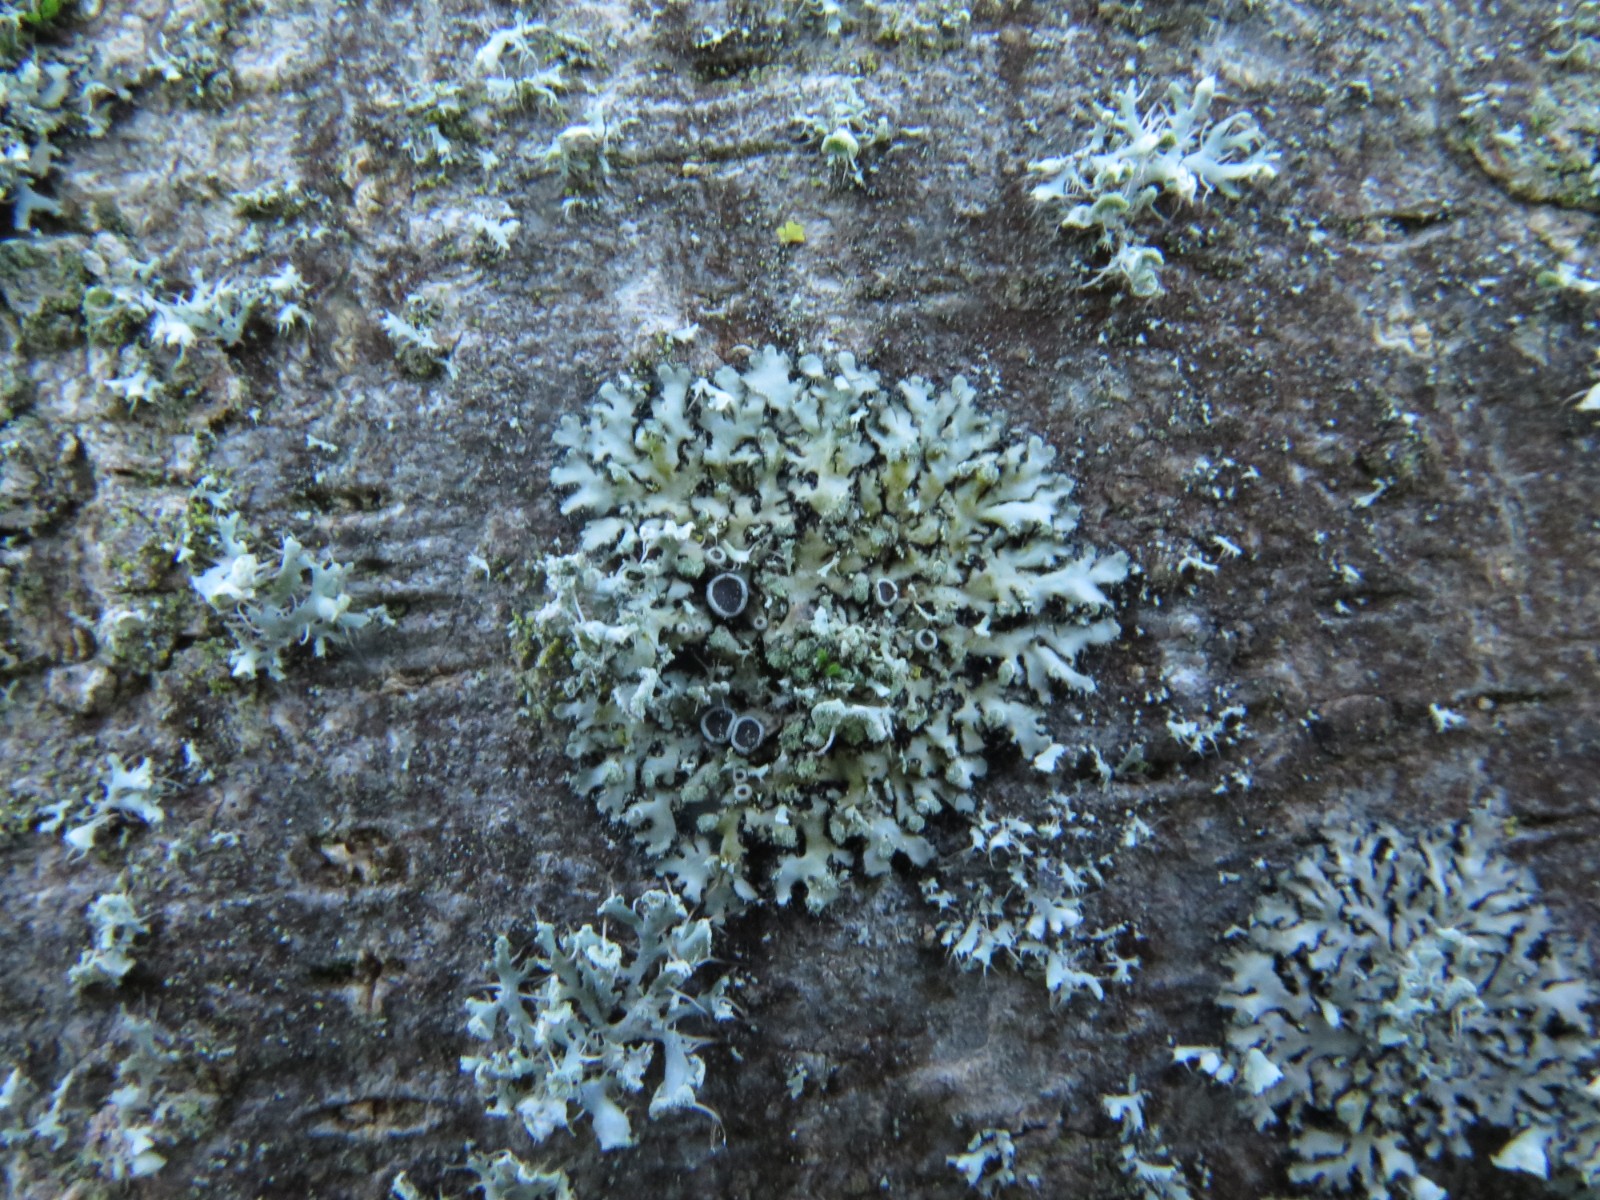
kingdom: Fungi
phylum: Ascomycota
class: Lecanoromycetes
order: Caliciales
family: Physciaceae
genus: Phaeophyscia
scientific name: Phaeophyscia orbicularis
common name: grågrøn rosetlav
